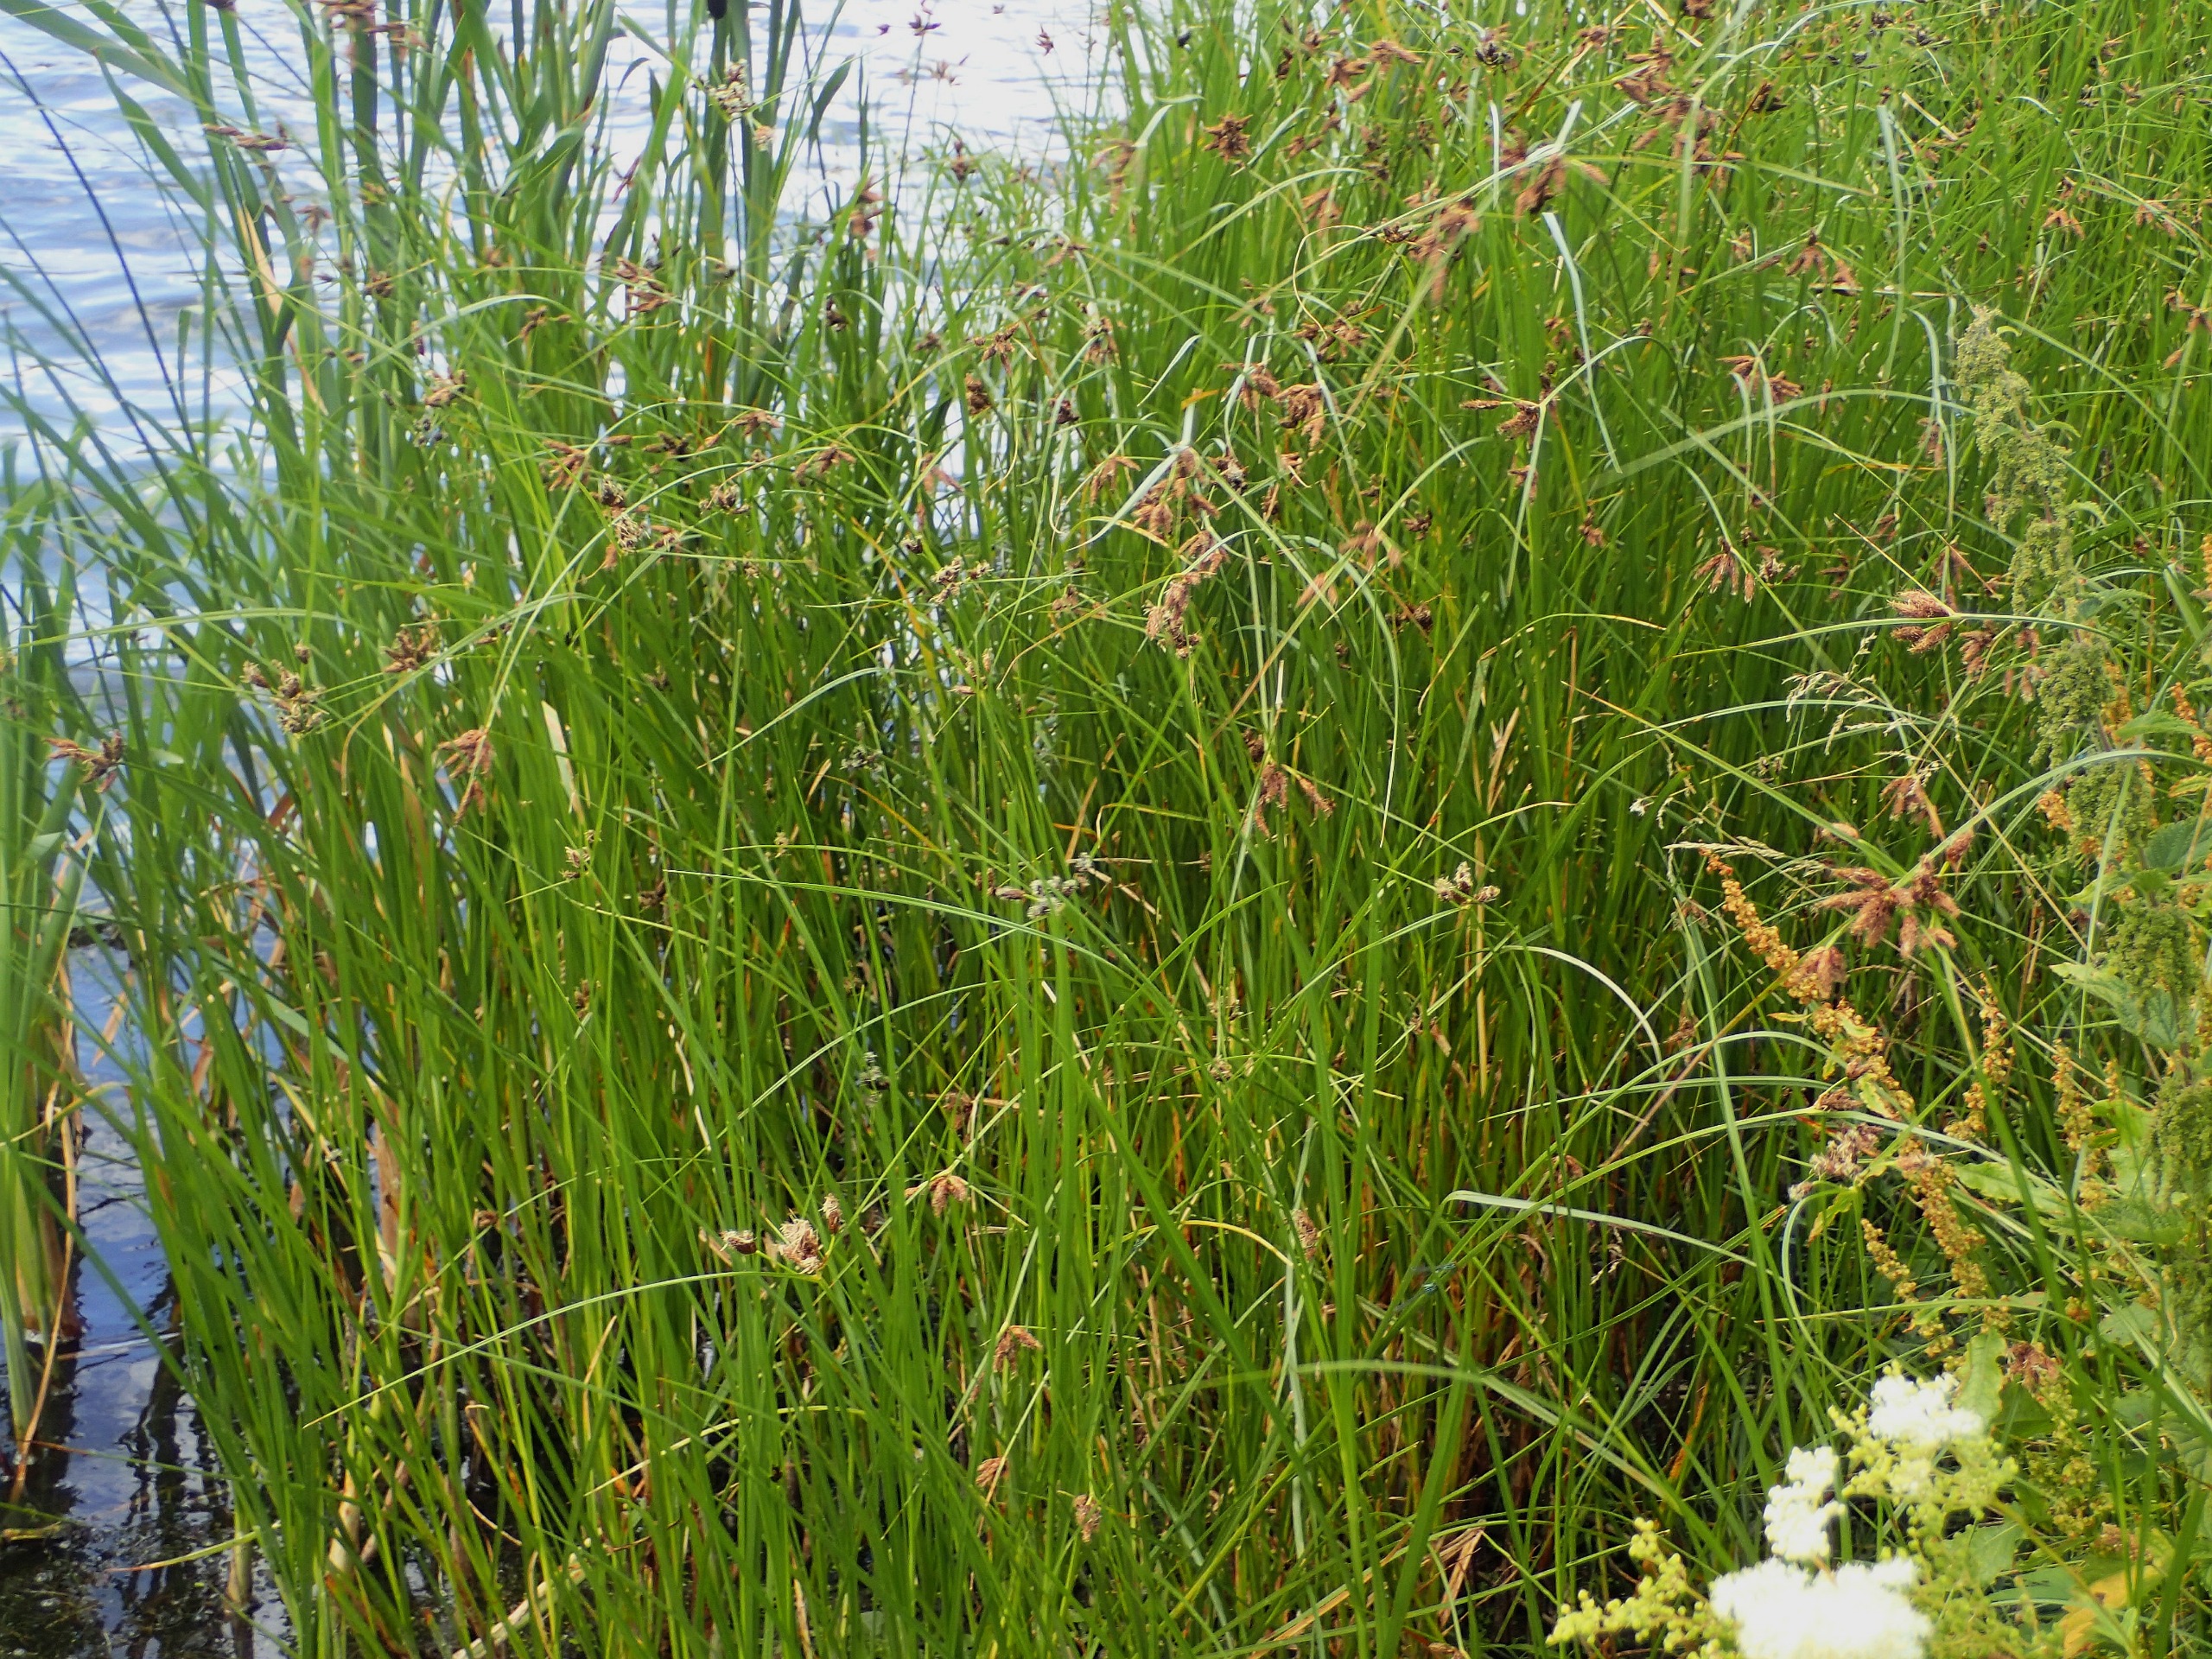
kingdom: Plantae
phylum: Tracheophyta
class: Liliopsida
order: Poales
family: Cyperaceae
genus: Bolboschoenus
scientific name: Bolboschoenus maritimus
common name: Strand-kogleaks
